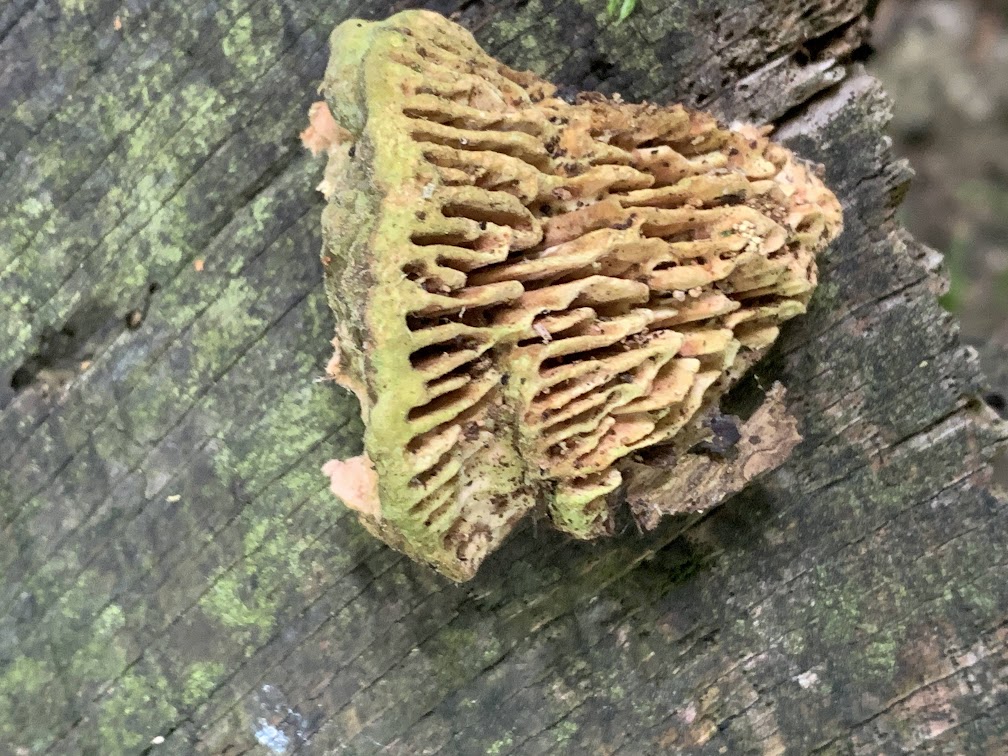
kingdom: Fungi
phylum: Basidiomycota
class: Agaricomycetes
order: Polyporales
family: Fomitopsidaceae
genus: Daedalea
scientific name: Daedalea quercina
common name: ege-labyrintsvamp
